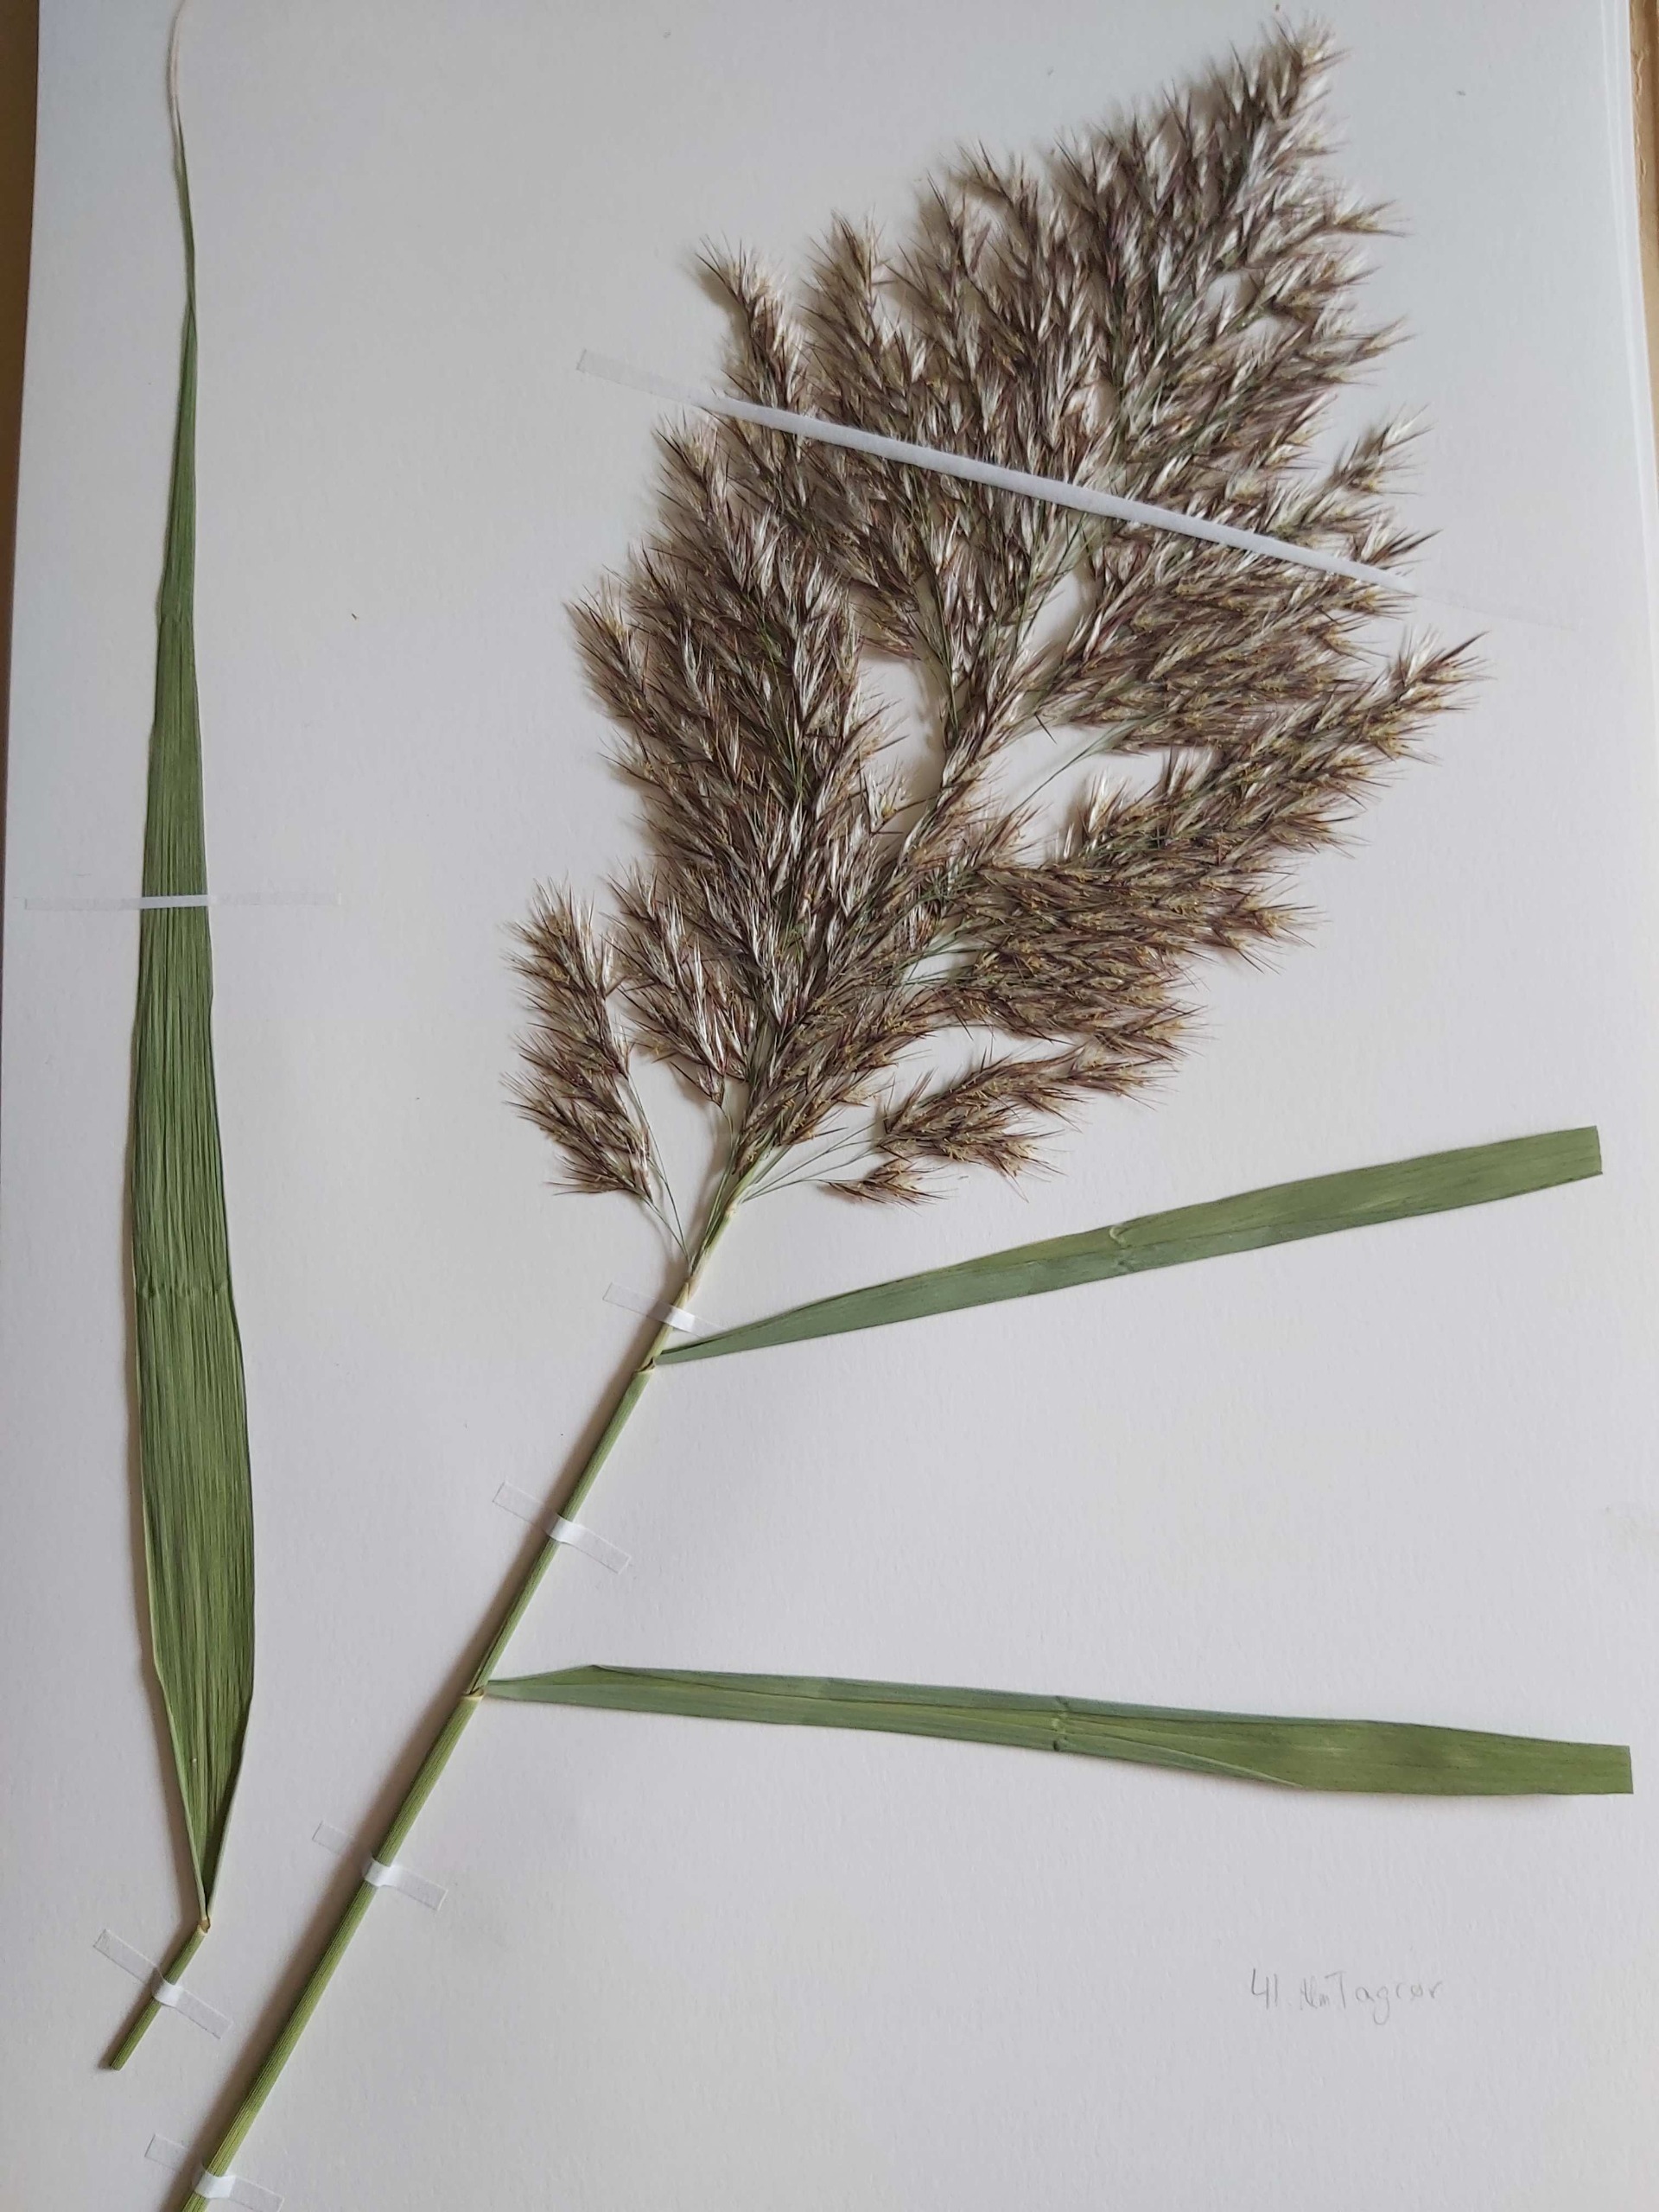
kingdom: Plantae
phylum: Tracheophyta
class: Liliopsida
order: Poales
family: Poaceae
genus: Phragmites
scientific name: Phragmites australis
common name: Tagrør
